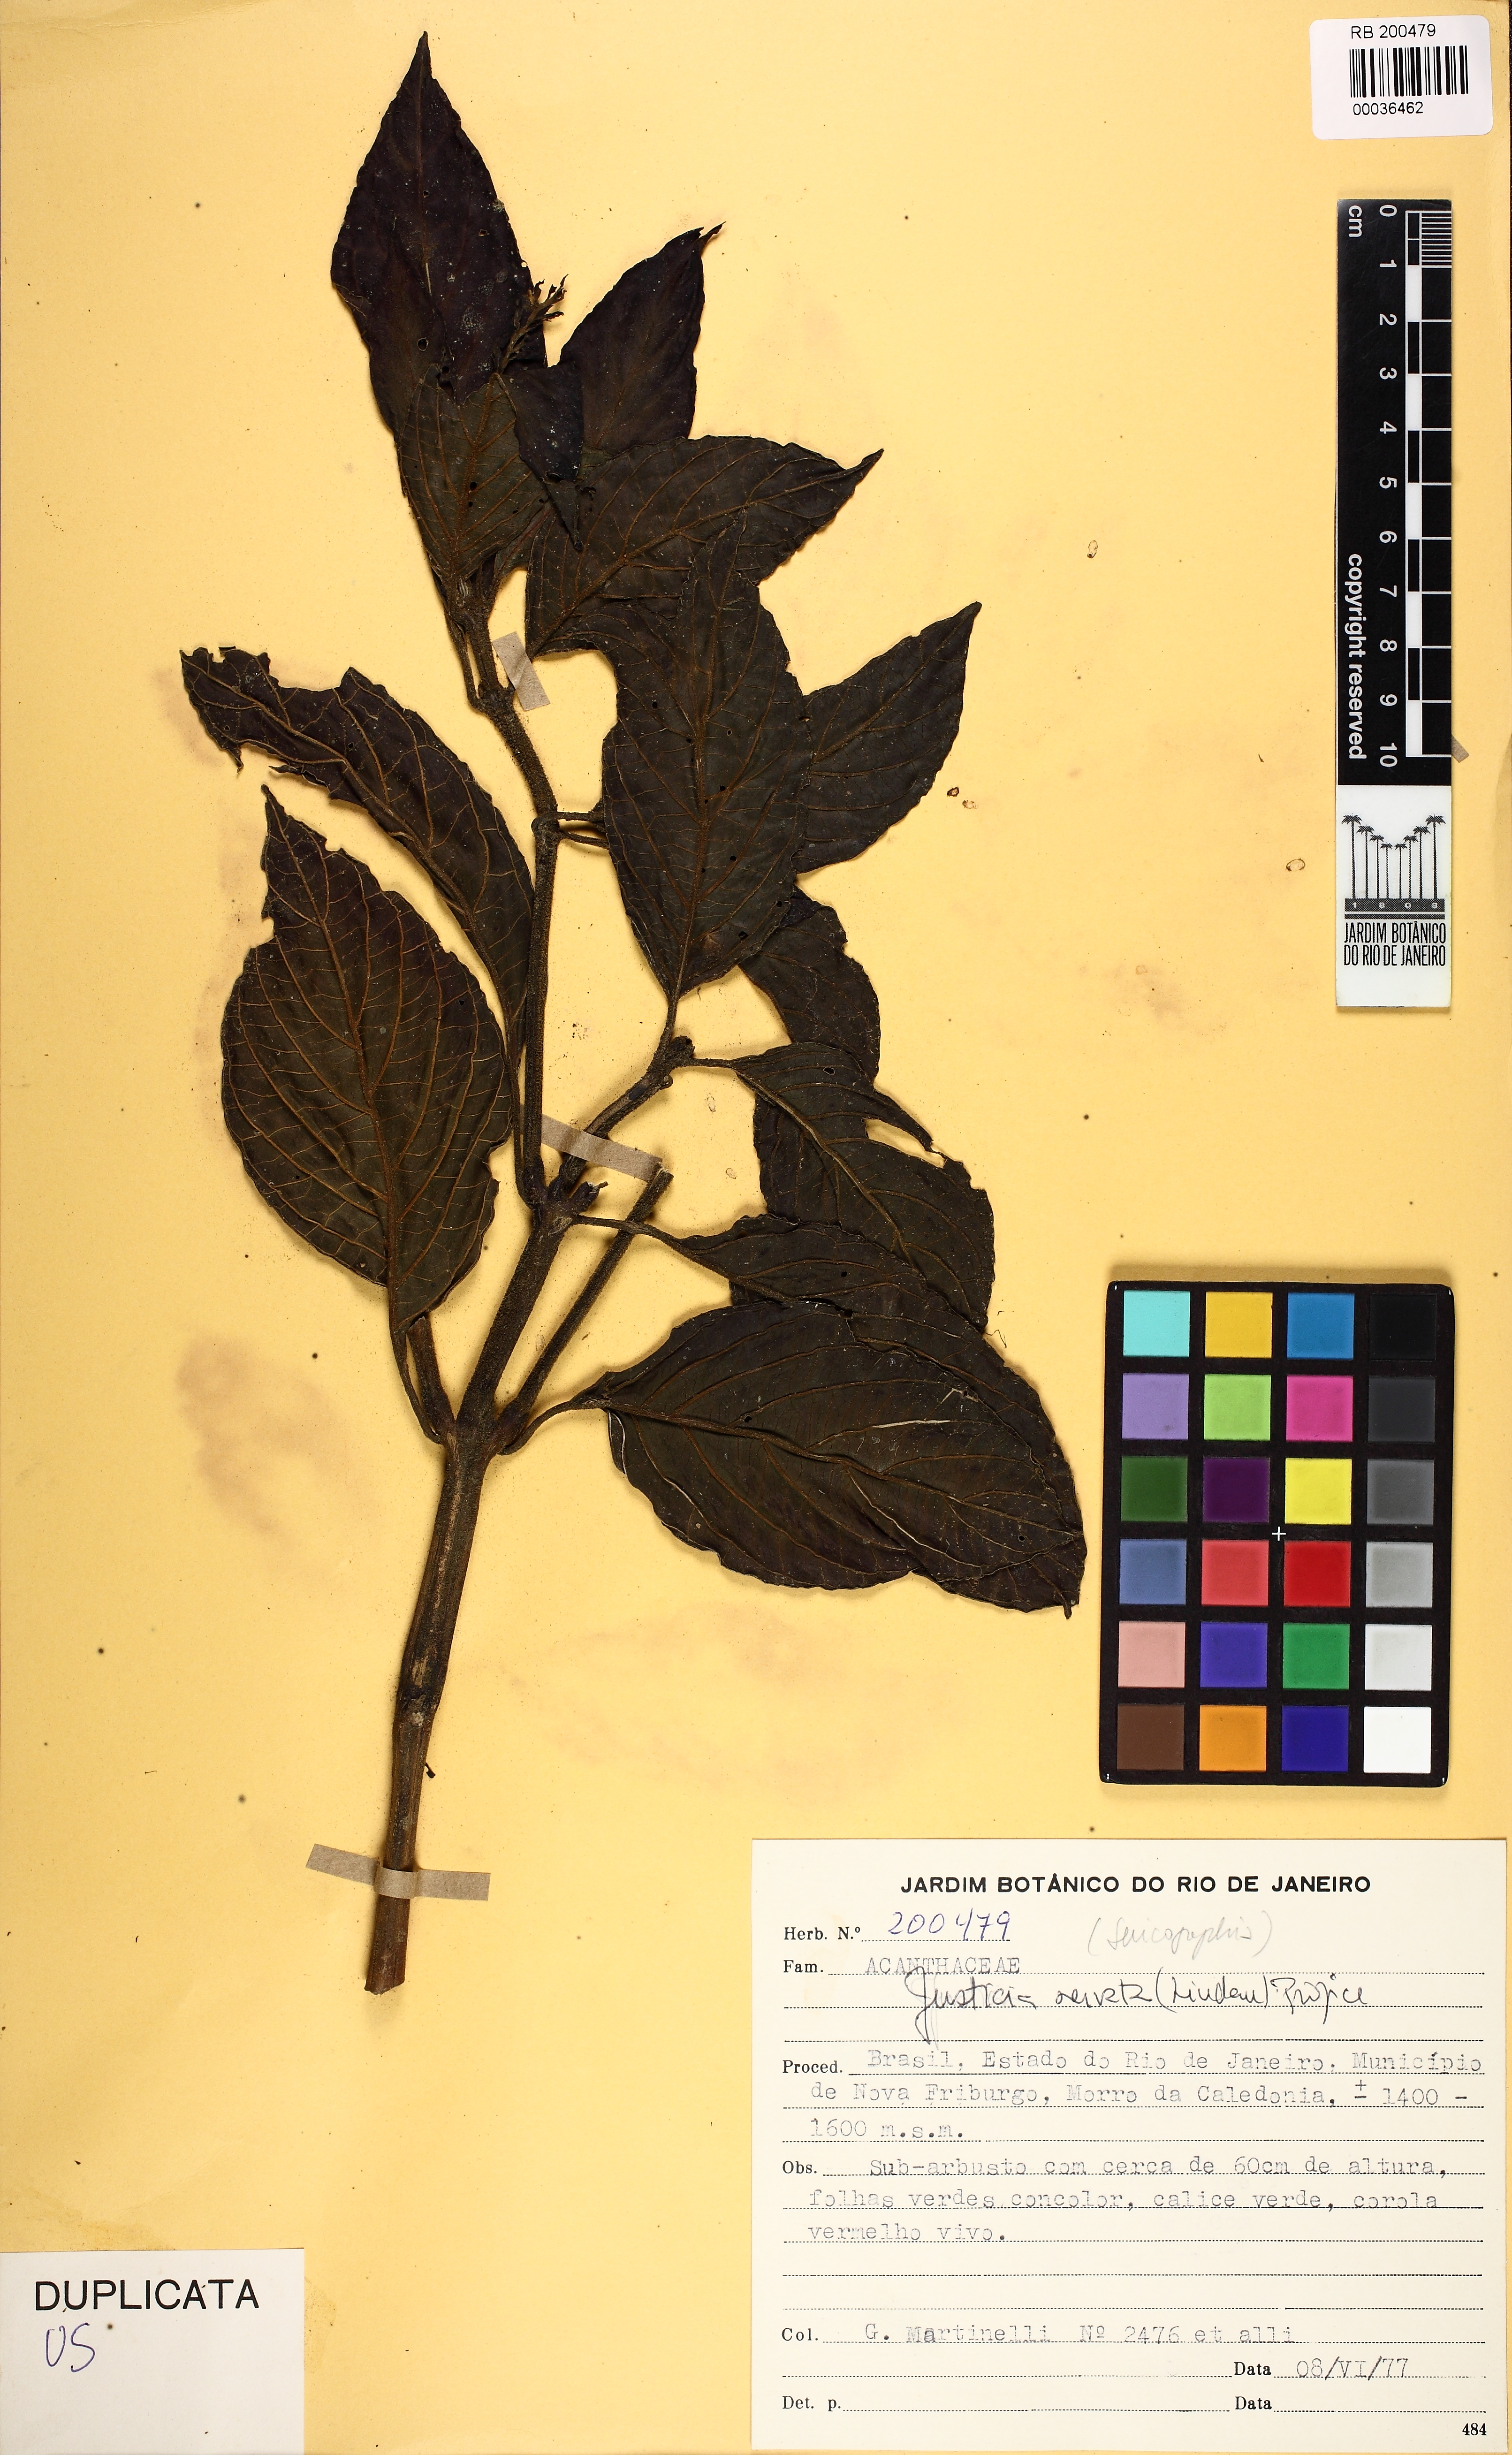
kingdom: Plantae
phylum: Tracheophyta
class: Magnoliopsida
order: Lamiales
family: Acanthaceae
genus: Justicia
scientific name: Justicia nervata
